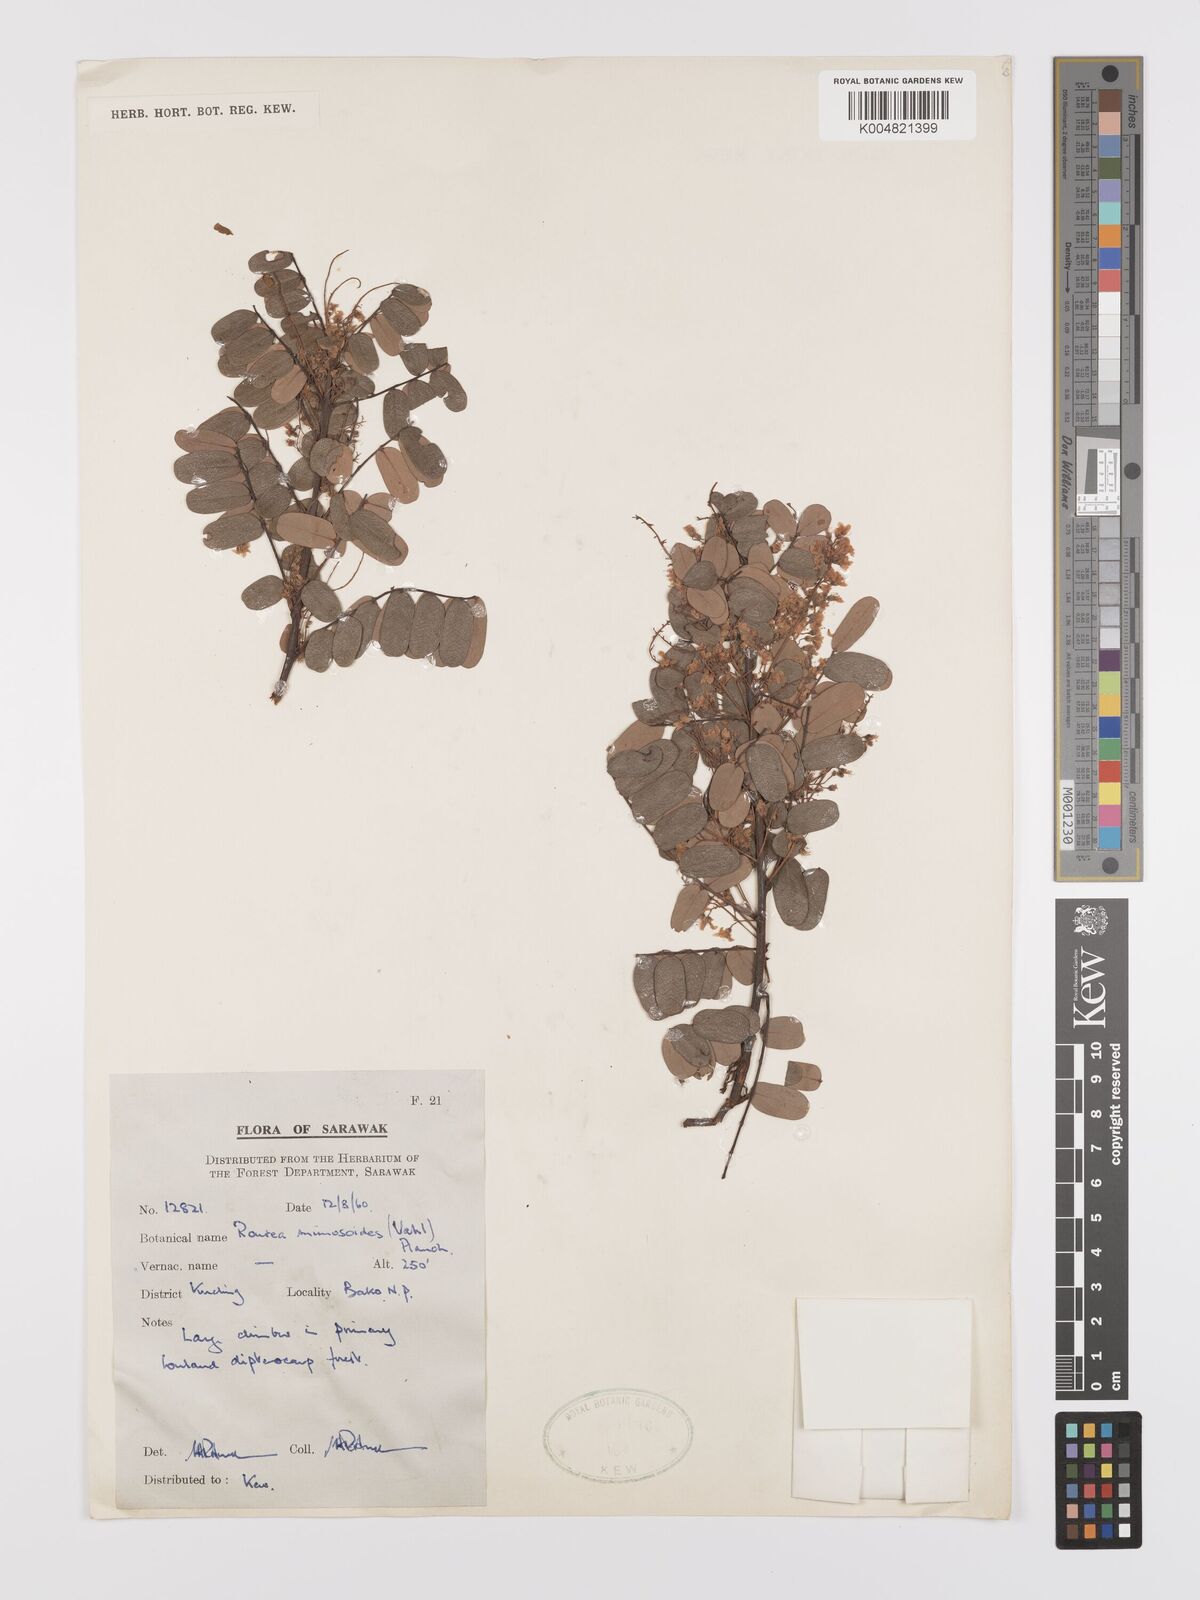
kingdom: Plantae
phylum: Tracheophyta
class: Magnoliopsida
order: Oxalidales
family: Connaraceae
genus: Rourea
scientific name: Rourea mimosoides
